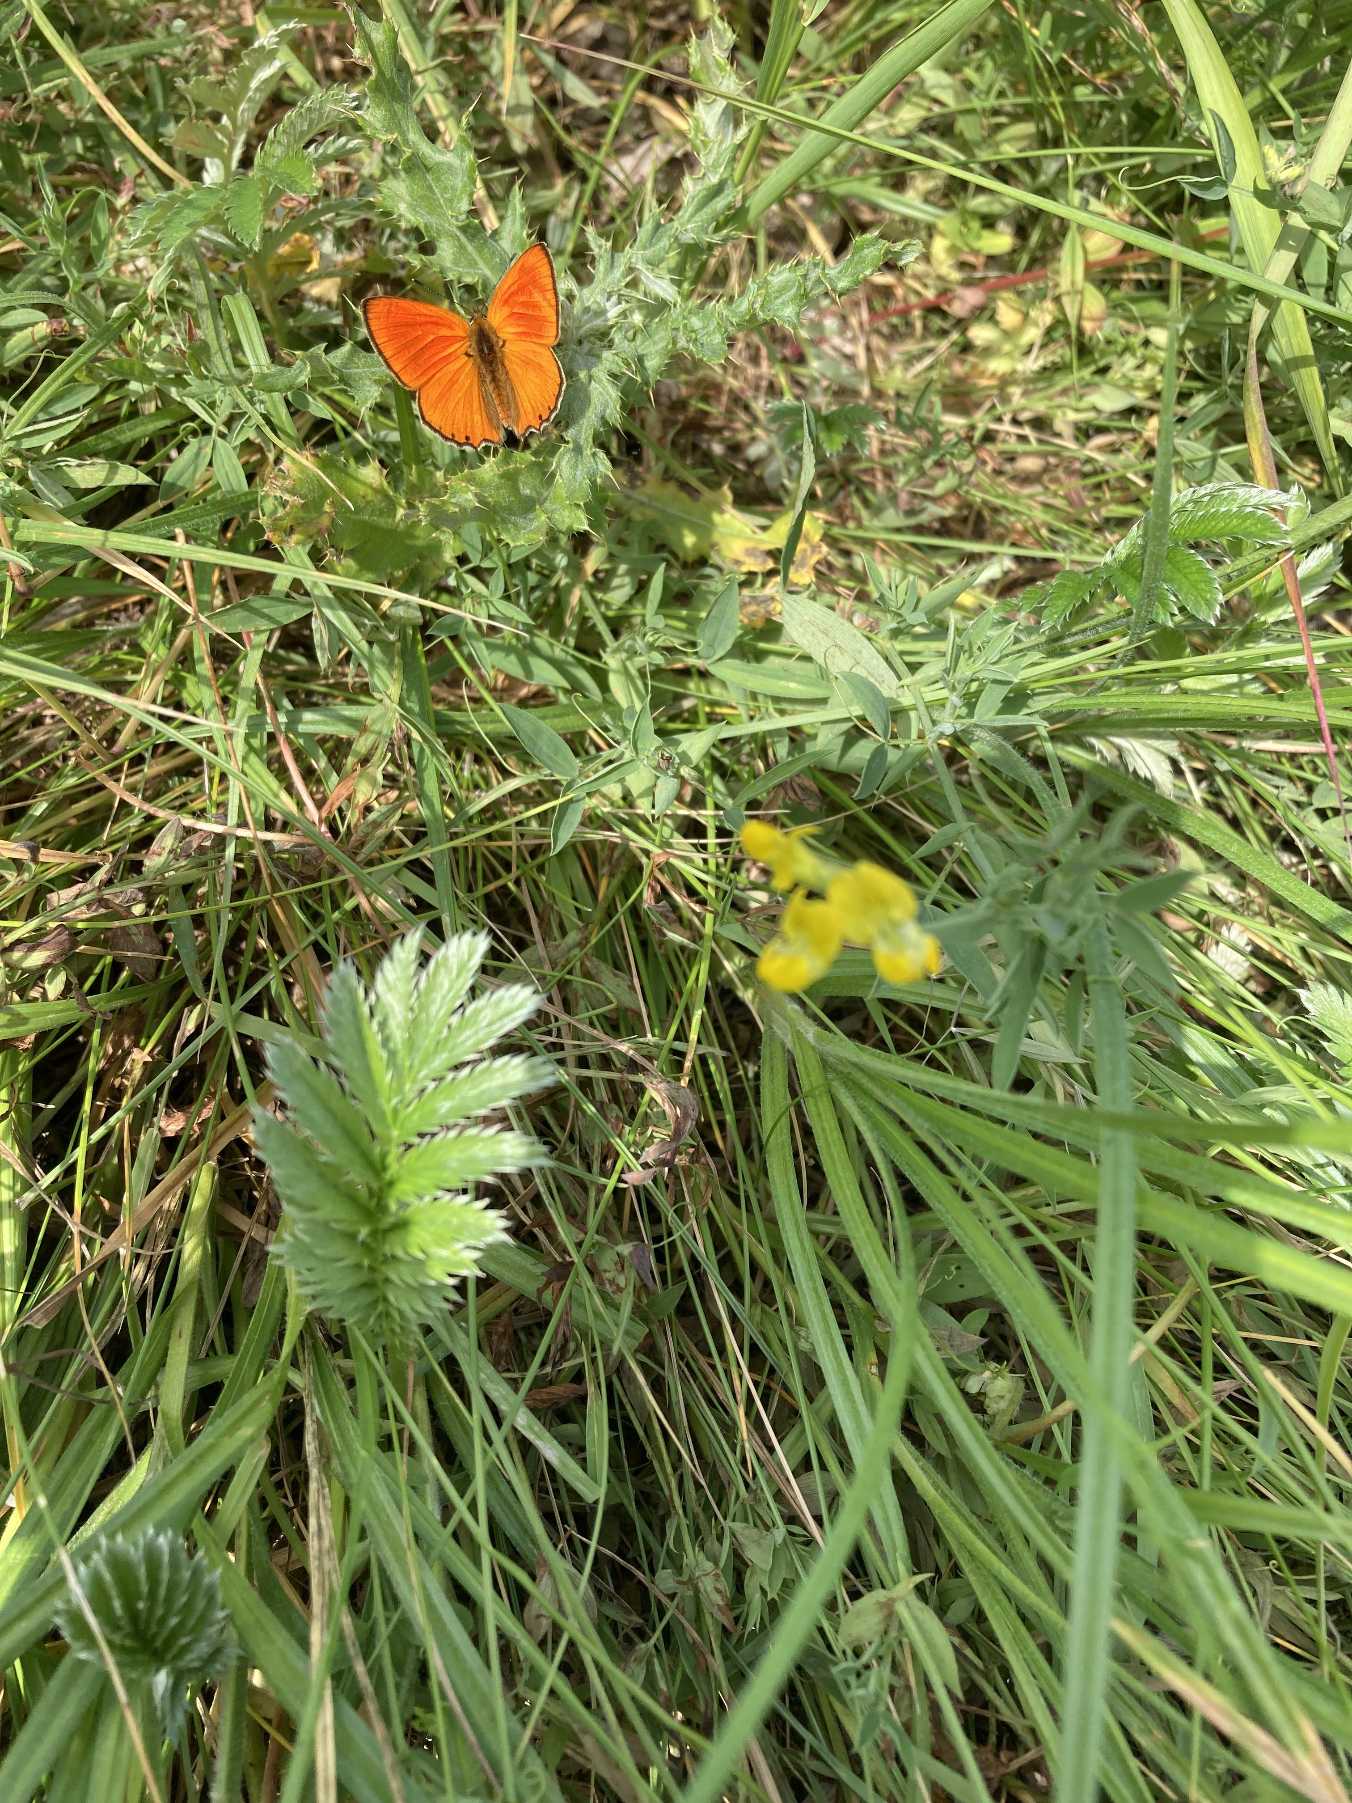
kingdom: Animalia
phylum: Arthropoda
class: Insecta
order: Lepidoptera
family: Lycaenidae
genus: Lycaena
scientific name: Lycaena virgaureae
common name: Dukatsommerfugl
